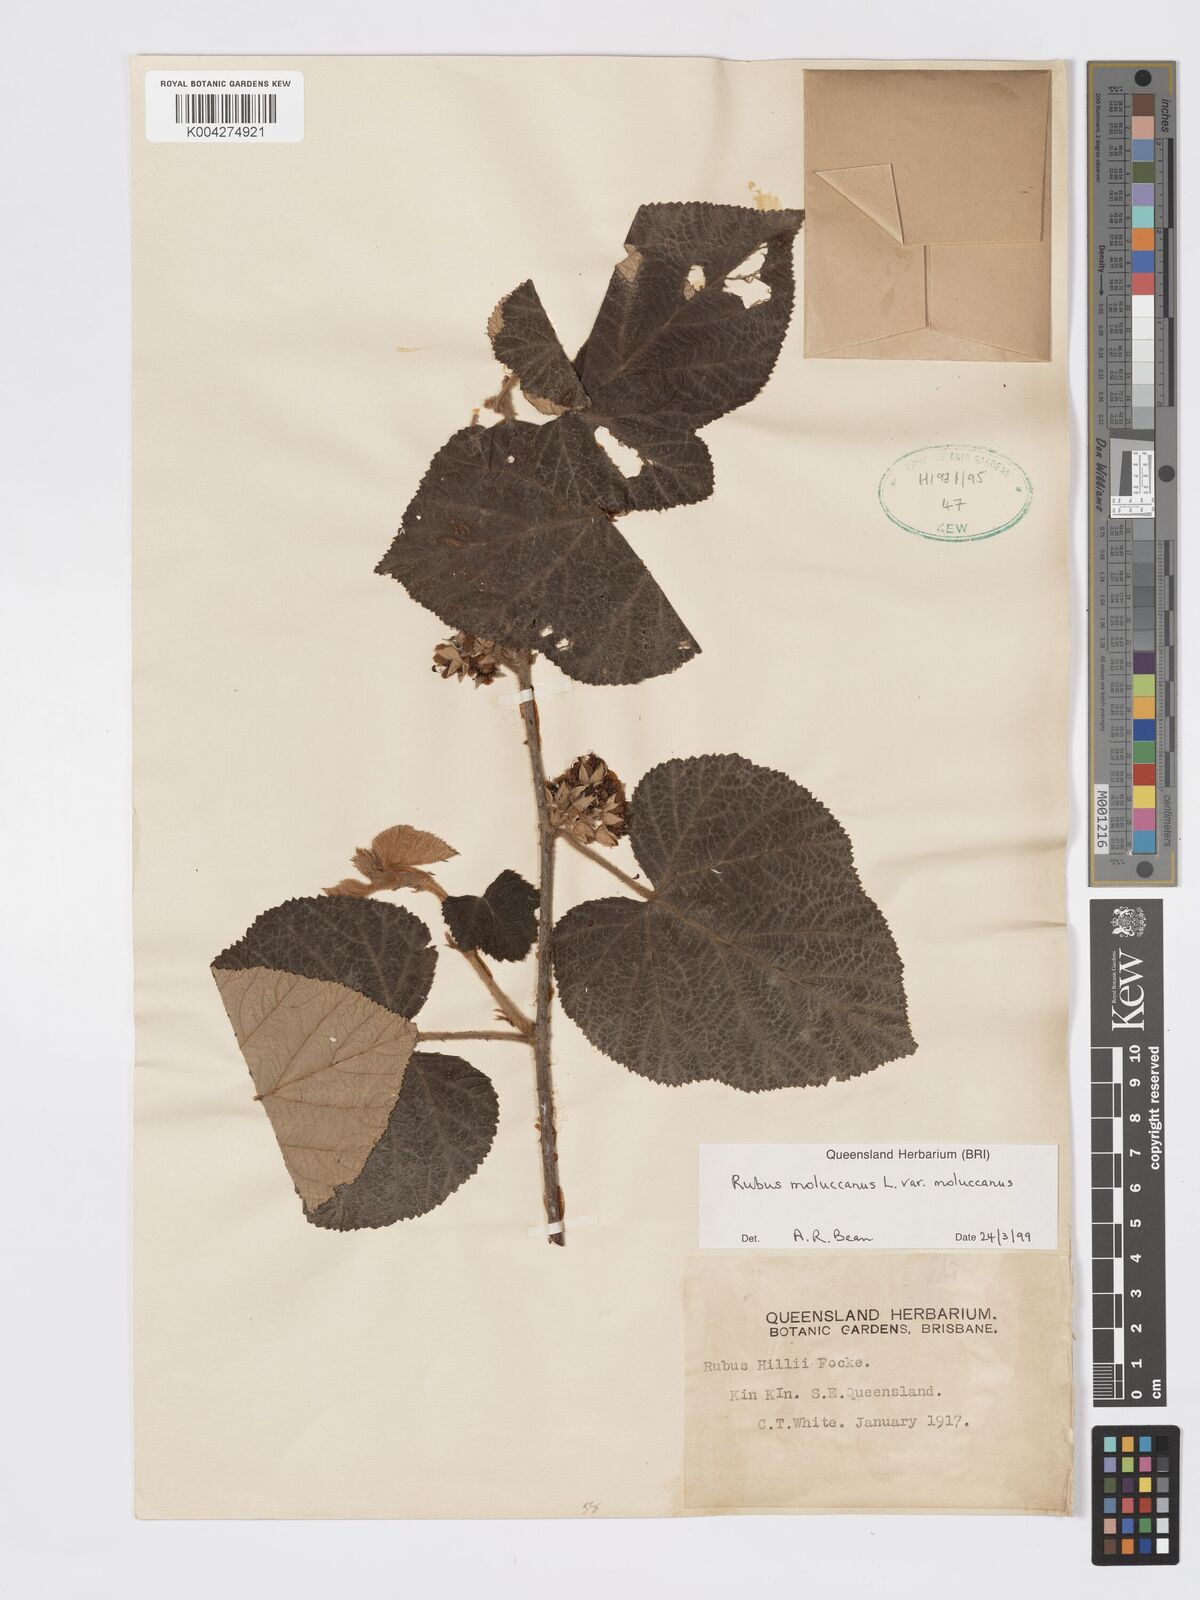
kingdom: Plantae
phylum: Tracheophyta
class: Magnoliopsida
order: Rosales
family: Rosaceae
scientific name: Rosaceae
